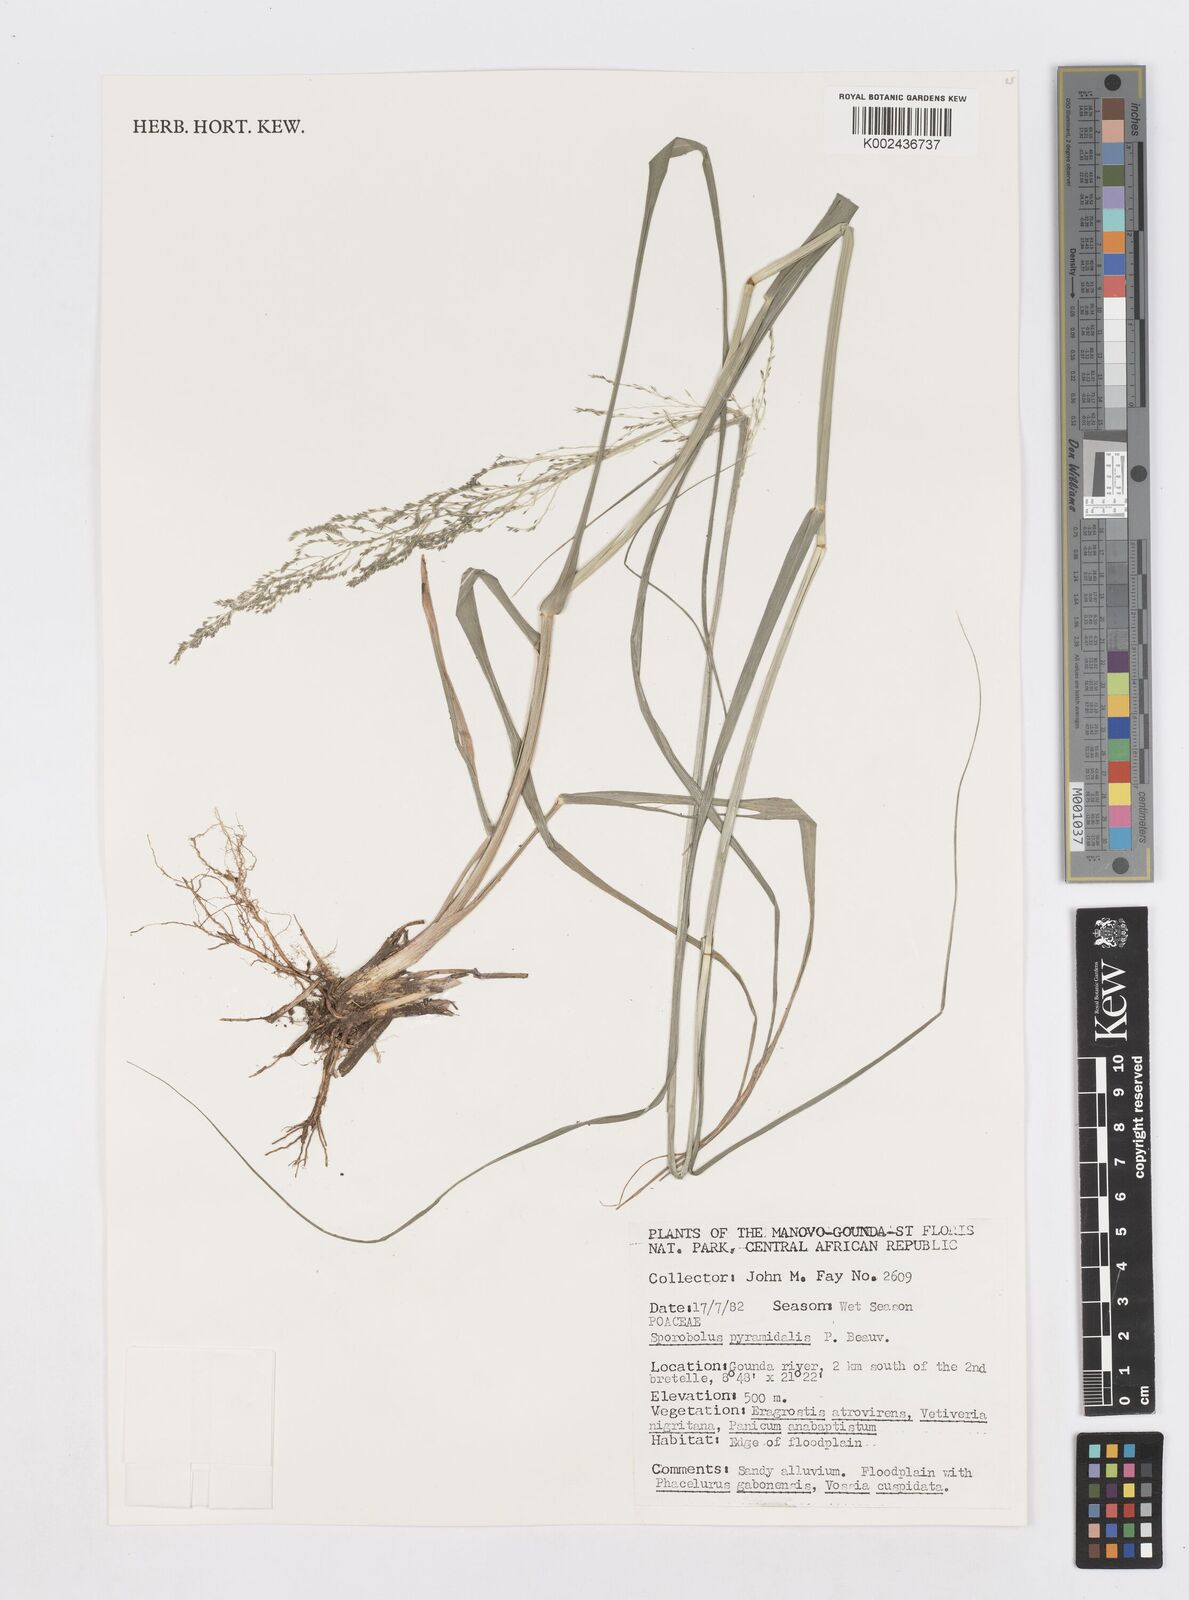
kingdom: Plantae
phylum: Tracheophyta
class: Liliopsida
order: Poales
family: Poaceae
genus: Sporobolus
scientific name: Sporobolus pyramidalis
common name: West indian dropseed
